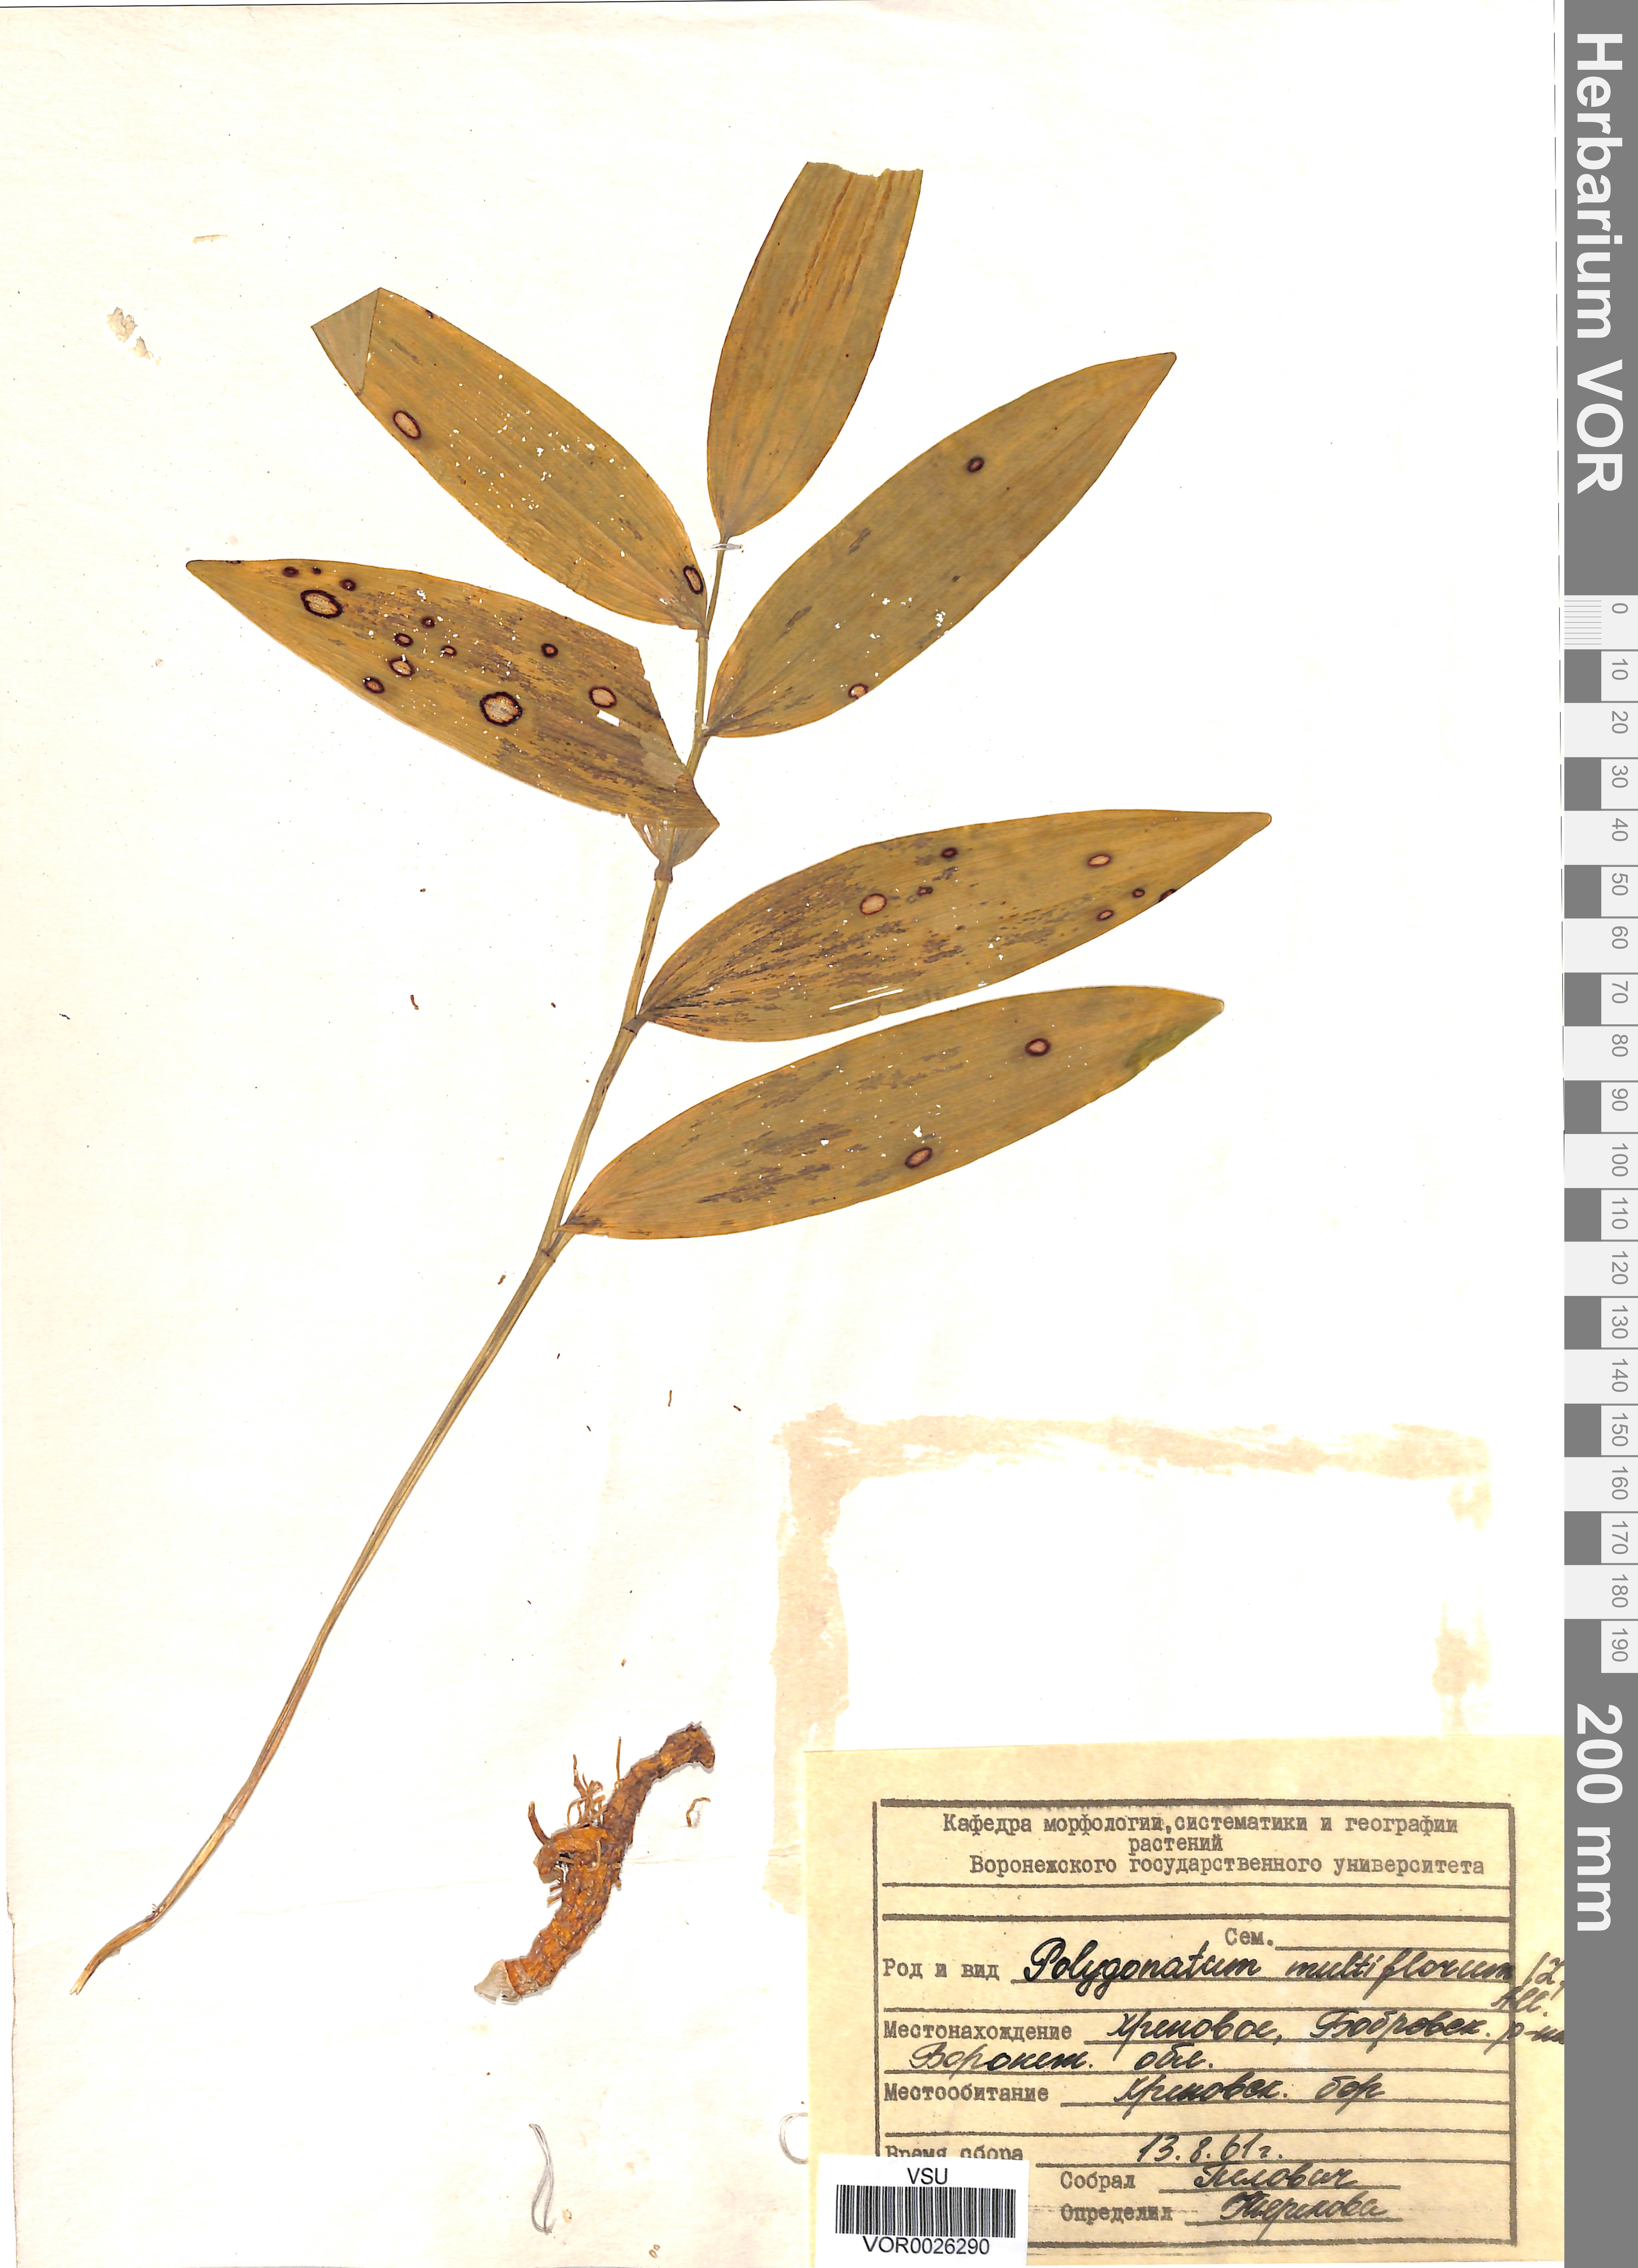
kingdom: Plantae
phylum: Tracheophyta
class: Liliopsida
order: Asparagales
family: Asparagaceae
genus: Polygonatum
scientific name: Polygonatum multiflorum
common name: Solomon's-seal
